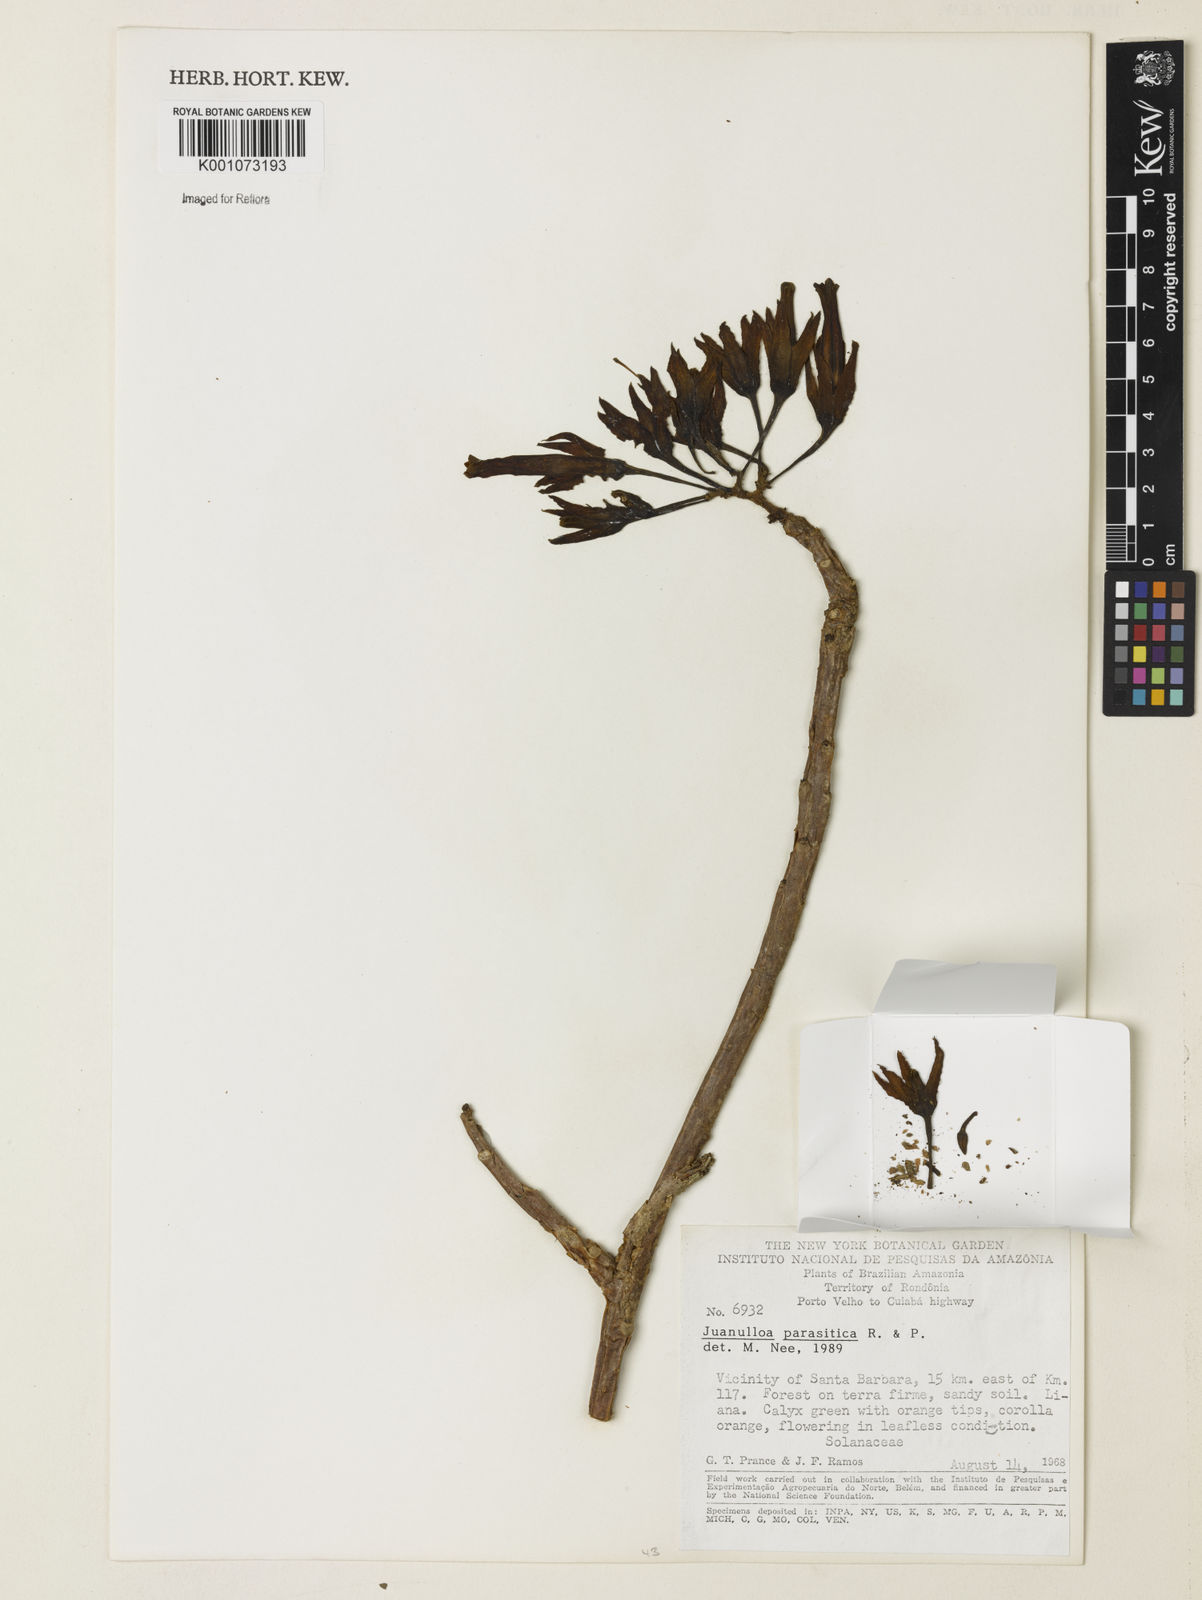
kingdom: Plantae
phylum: Tracheophyta
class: Magnoliopsida
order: Solanales
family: Solanaceae
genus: Juanulloa
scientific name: Juanulloa parasitica
